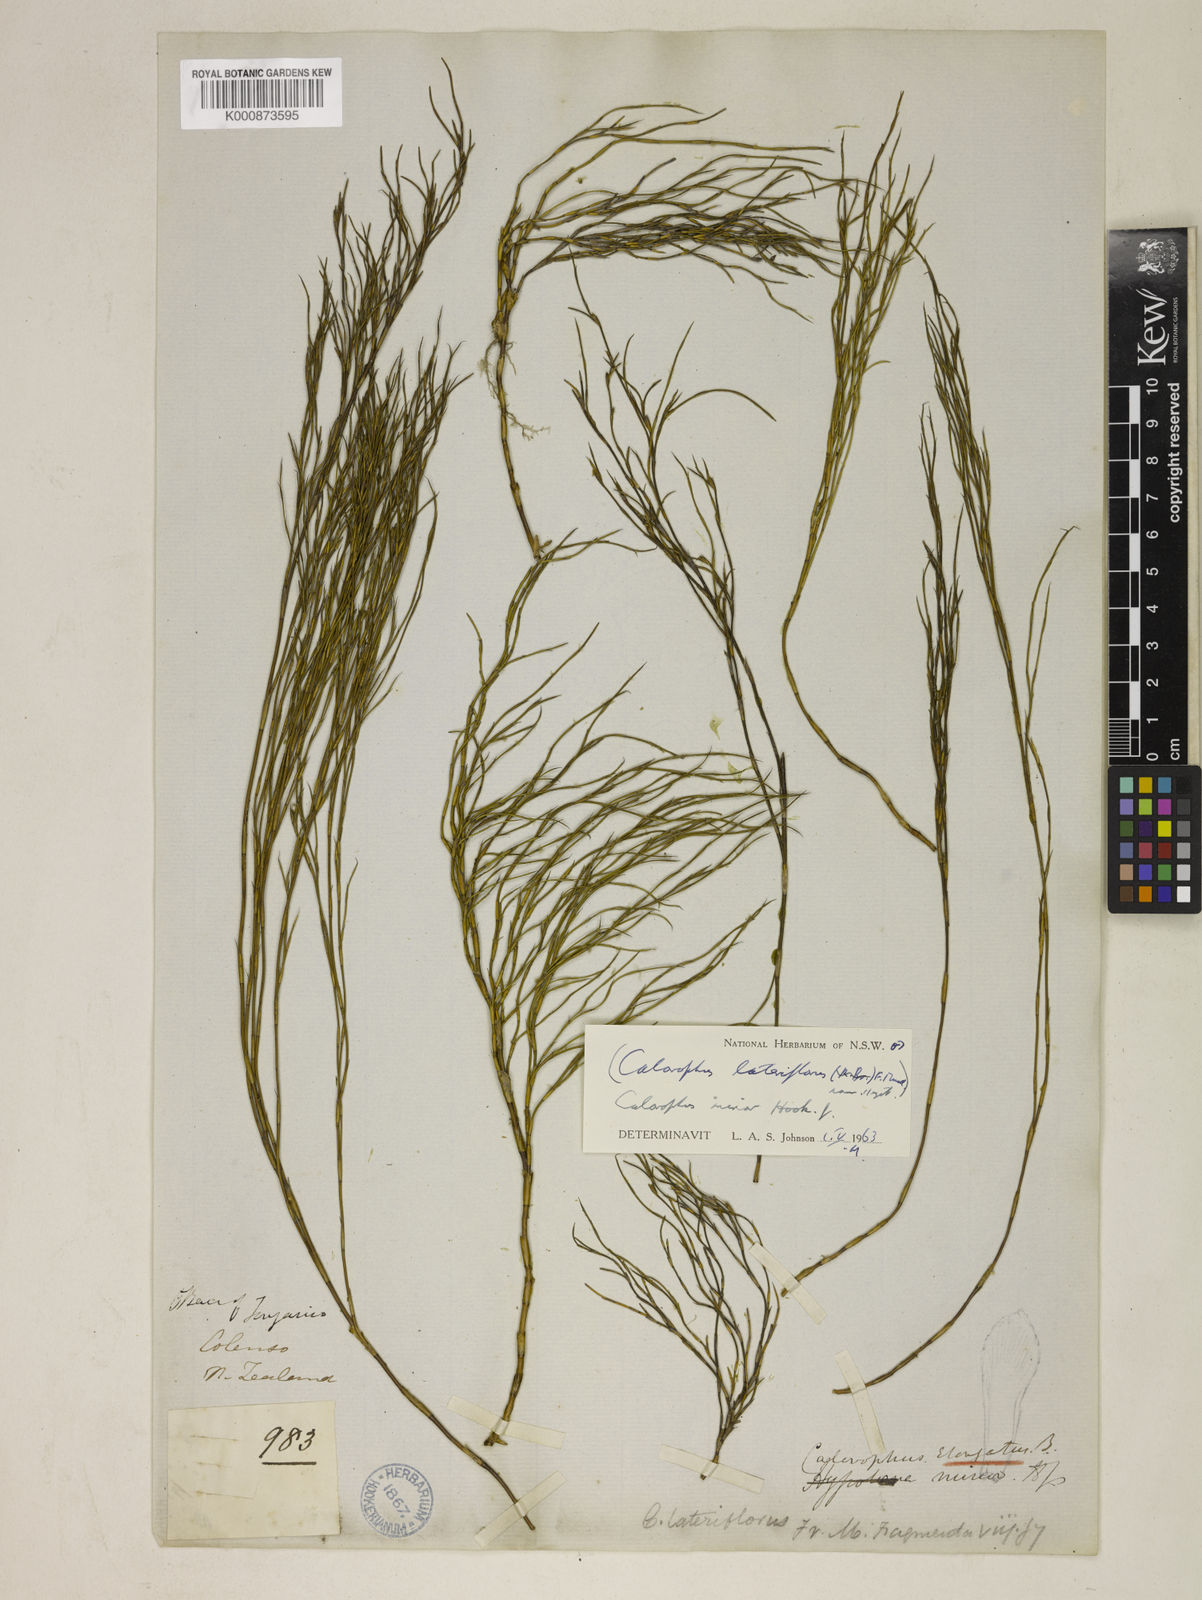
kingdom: Plantae
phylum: Tracheophyta
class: Liliopsida
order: Poales
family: Restionaceae
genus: Empodisma
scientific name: Empodisma minus
